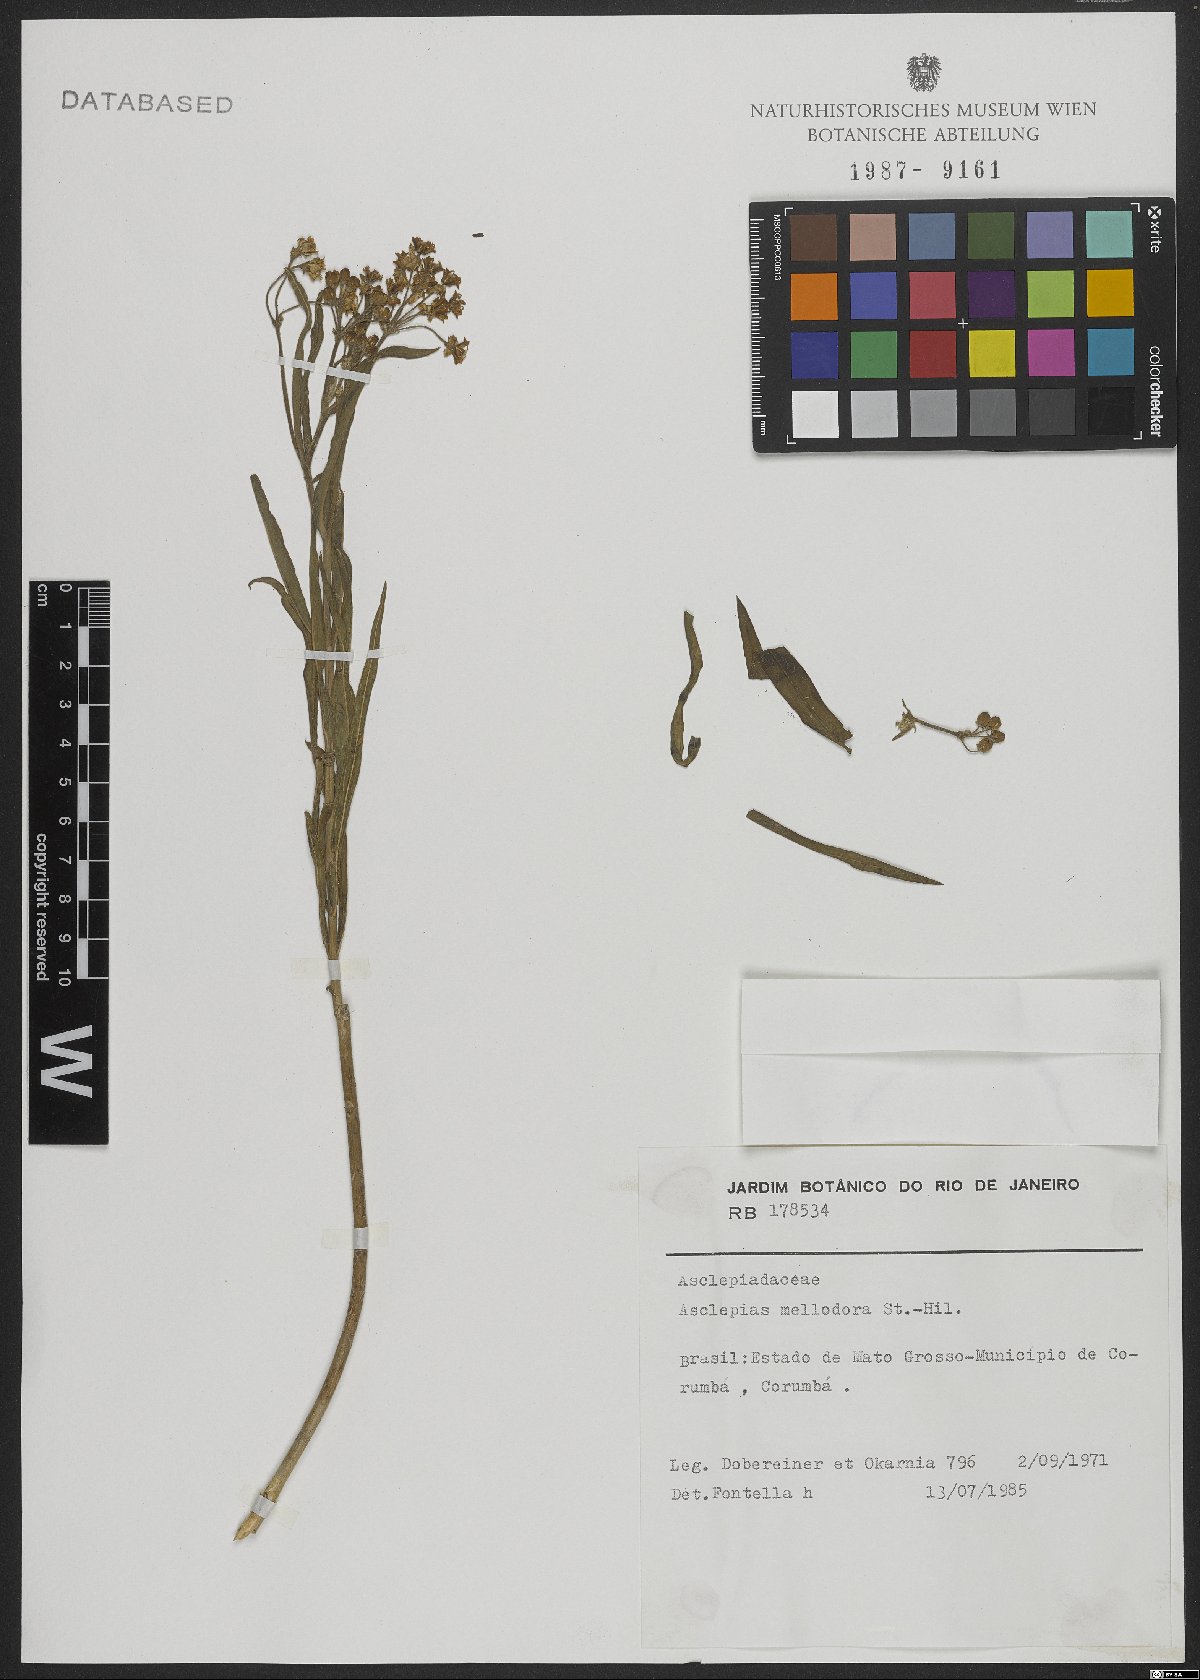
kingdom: Plantae
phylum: Tracheophyta
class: Magnoliopsida
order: Gentianales
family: Apocynaceae
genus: Asclepias
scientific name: Asclepias mellodora
